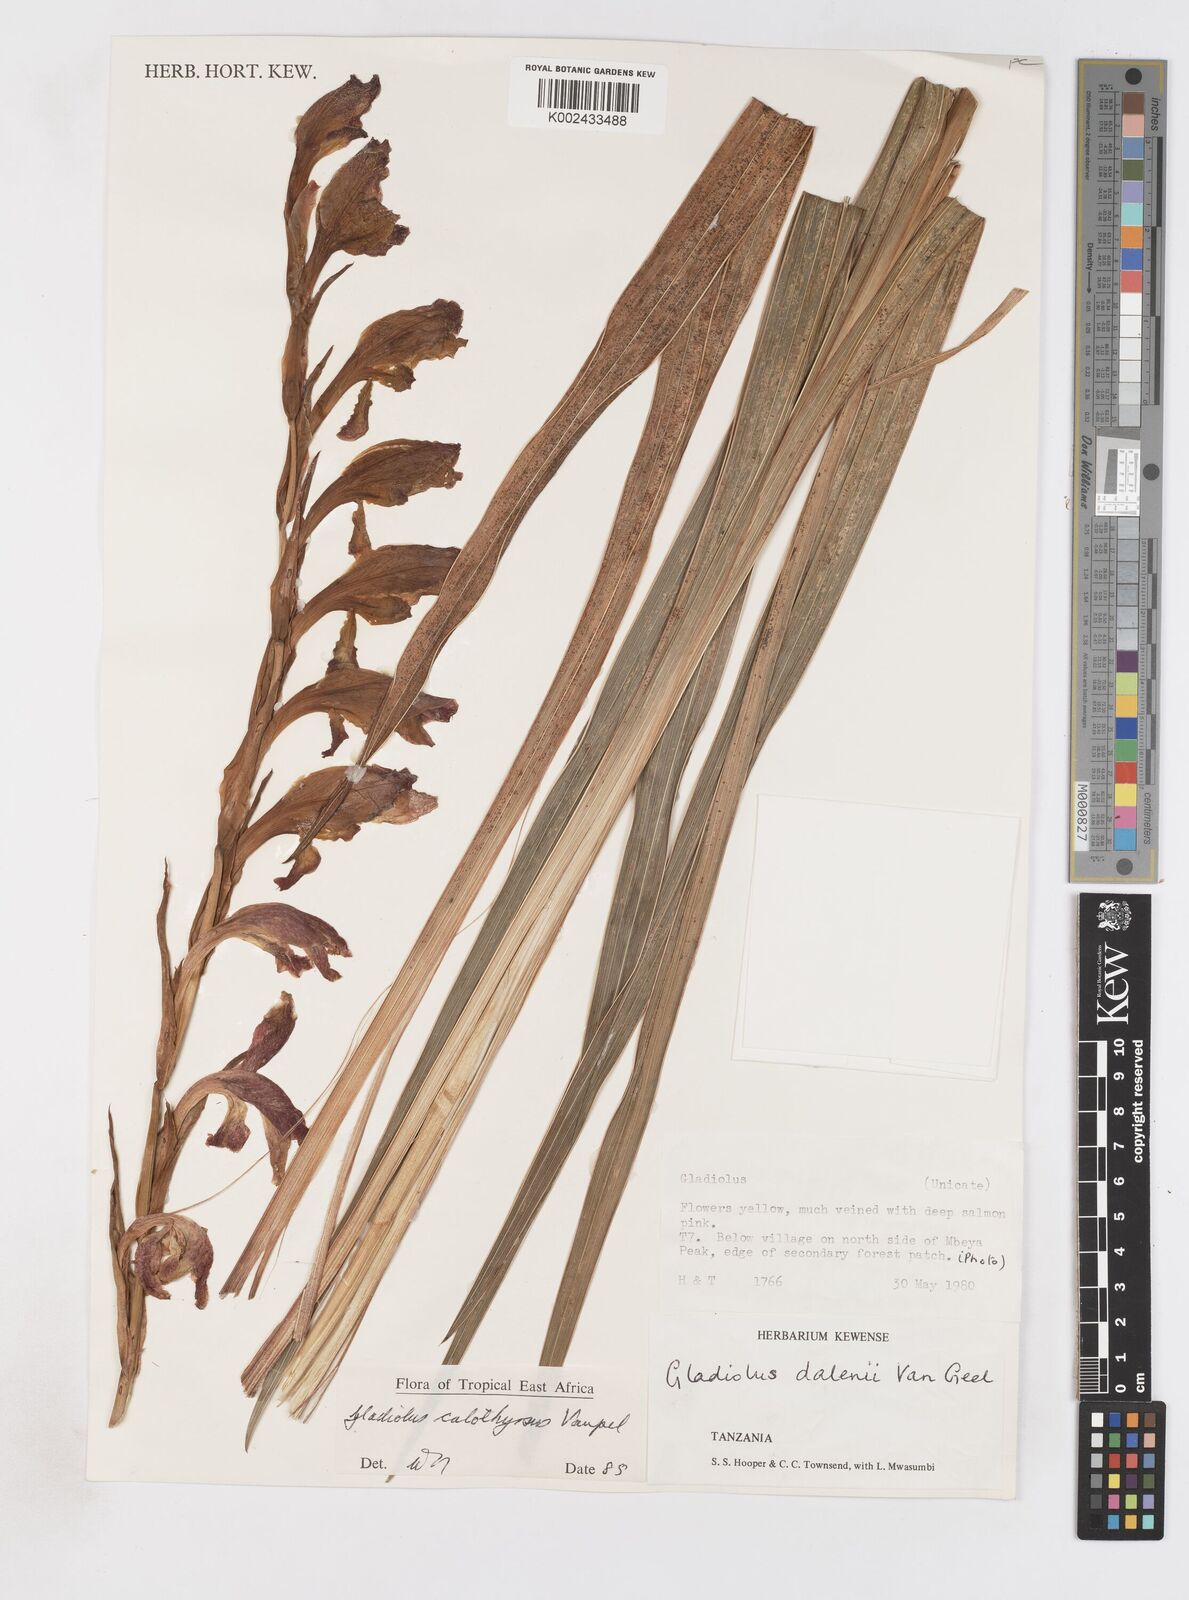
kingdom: Plantae
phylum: Tracheophyta
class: Liliopsida
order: Asparagales
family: Iridaceae
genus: Gladiolus
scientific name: Gladiolus dalenii
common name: Cornflag
